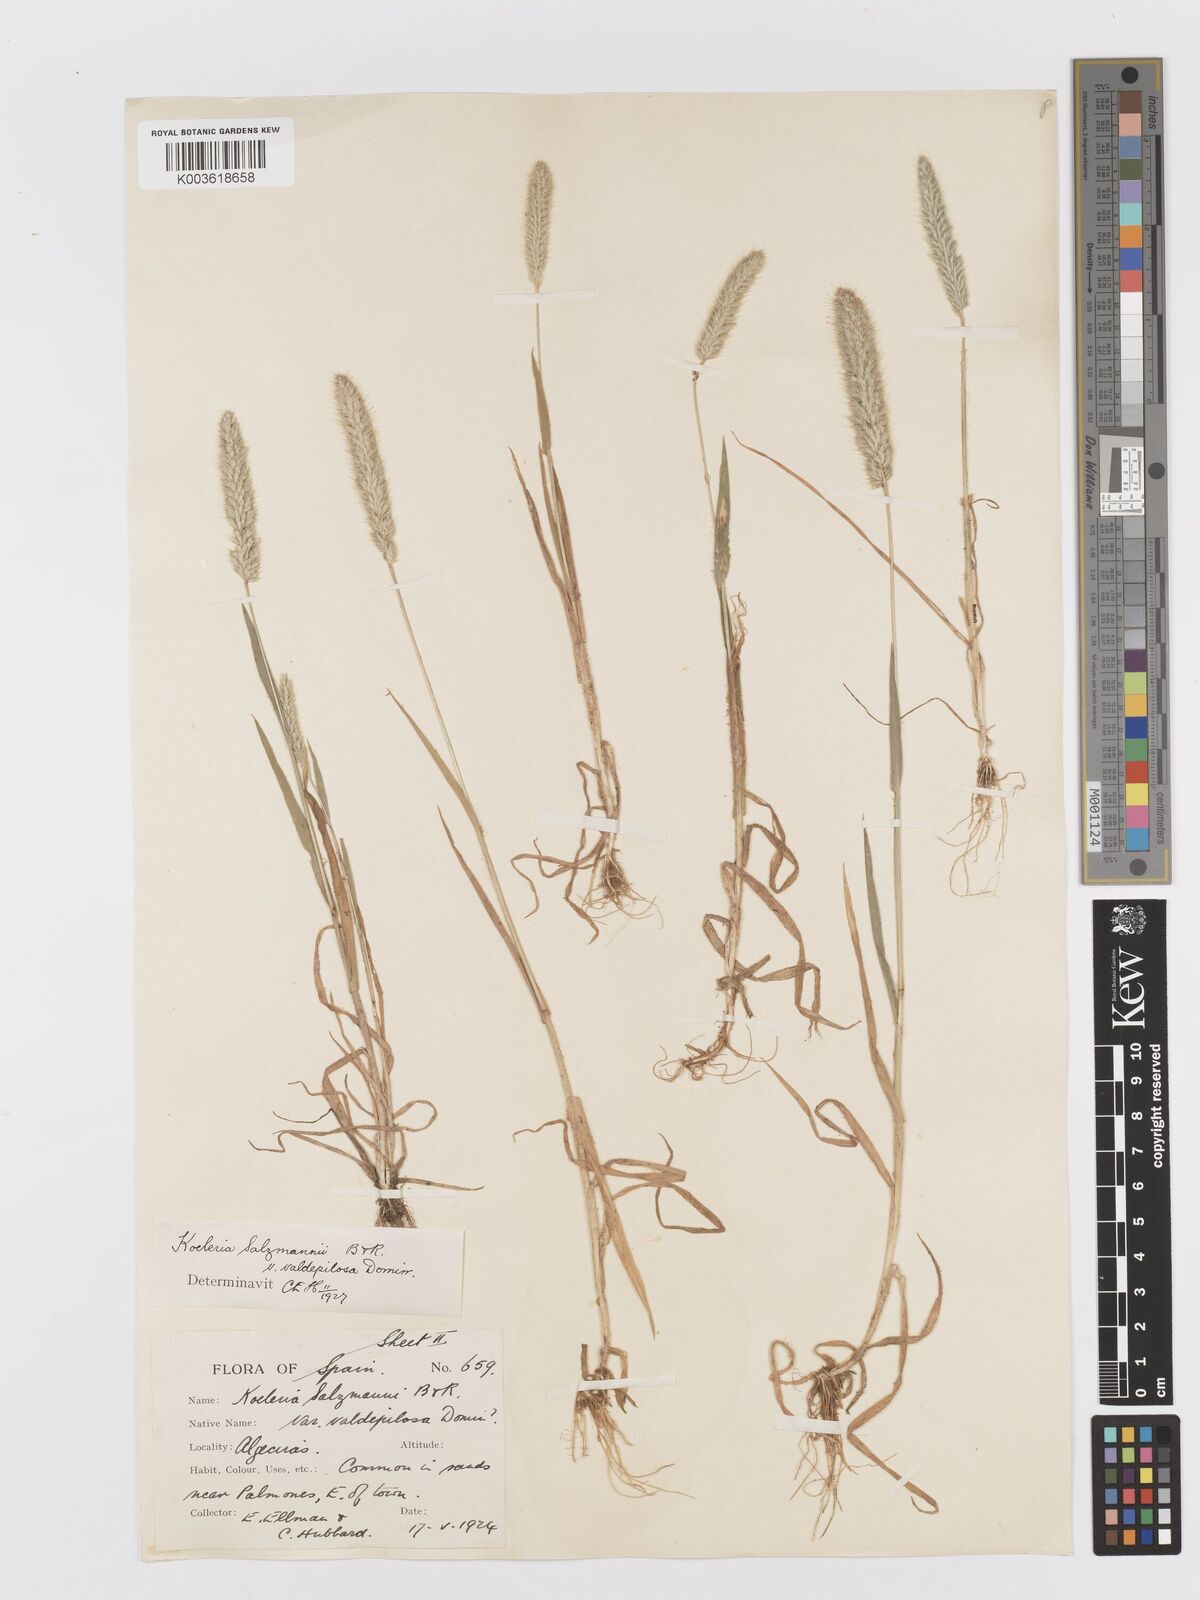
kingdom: Plantae
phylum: Tracheophyta
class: Liliopsida
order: Poales
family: Poaceae
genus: Rostraria
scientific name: Rostraria salzmannii
